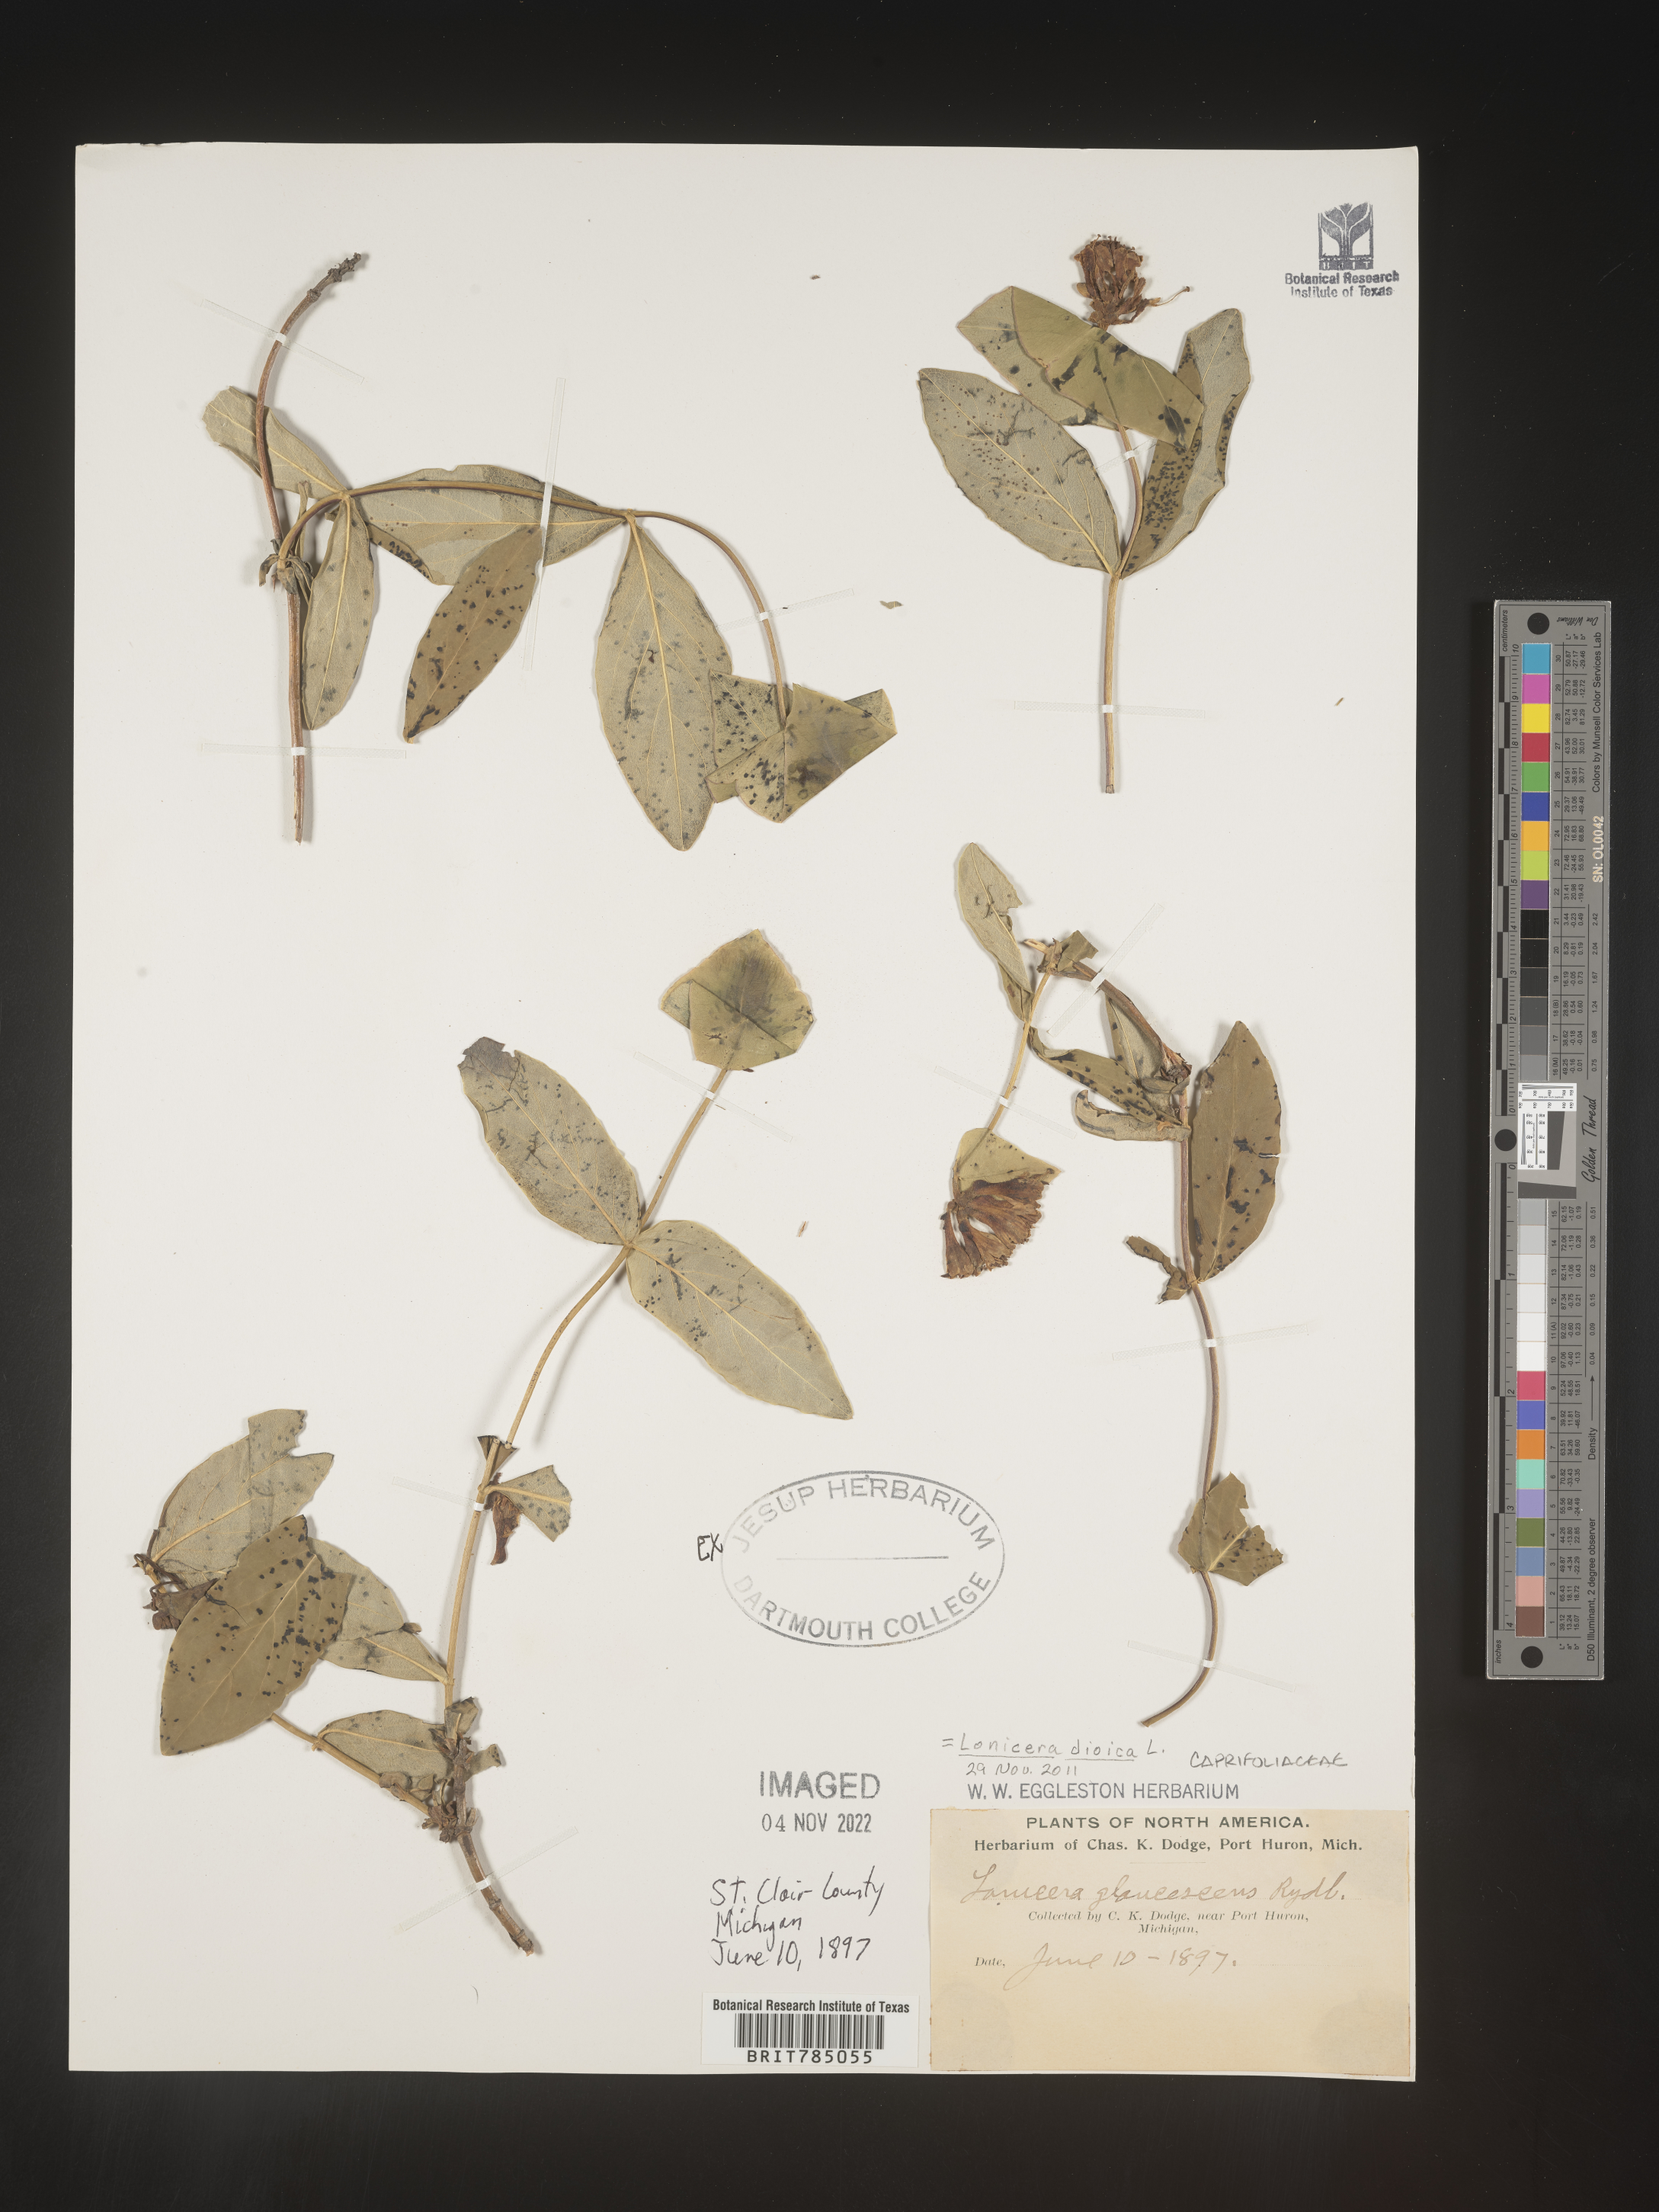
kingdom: Plantae
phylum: Tracheophyta
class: Magnoliopsida
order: Dipsacales
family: Caprifoliaceae
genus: Lonicera
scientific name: Lonicera dioica
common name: Limber honeysuckle
